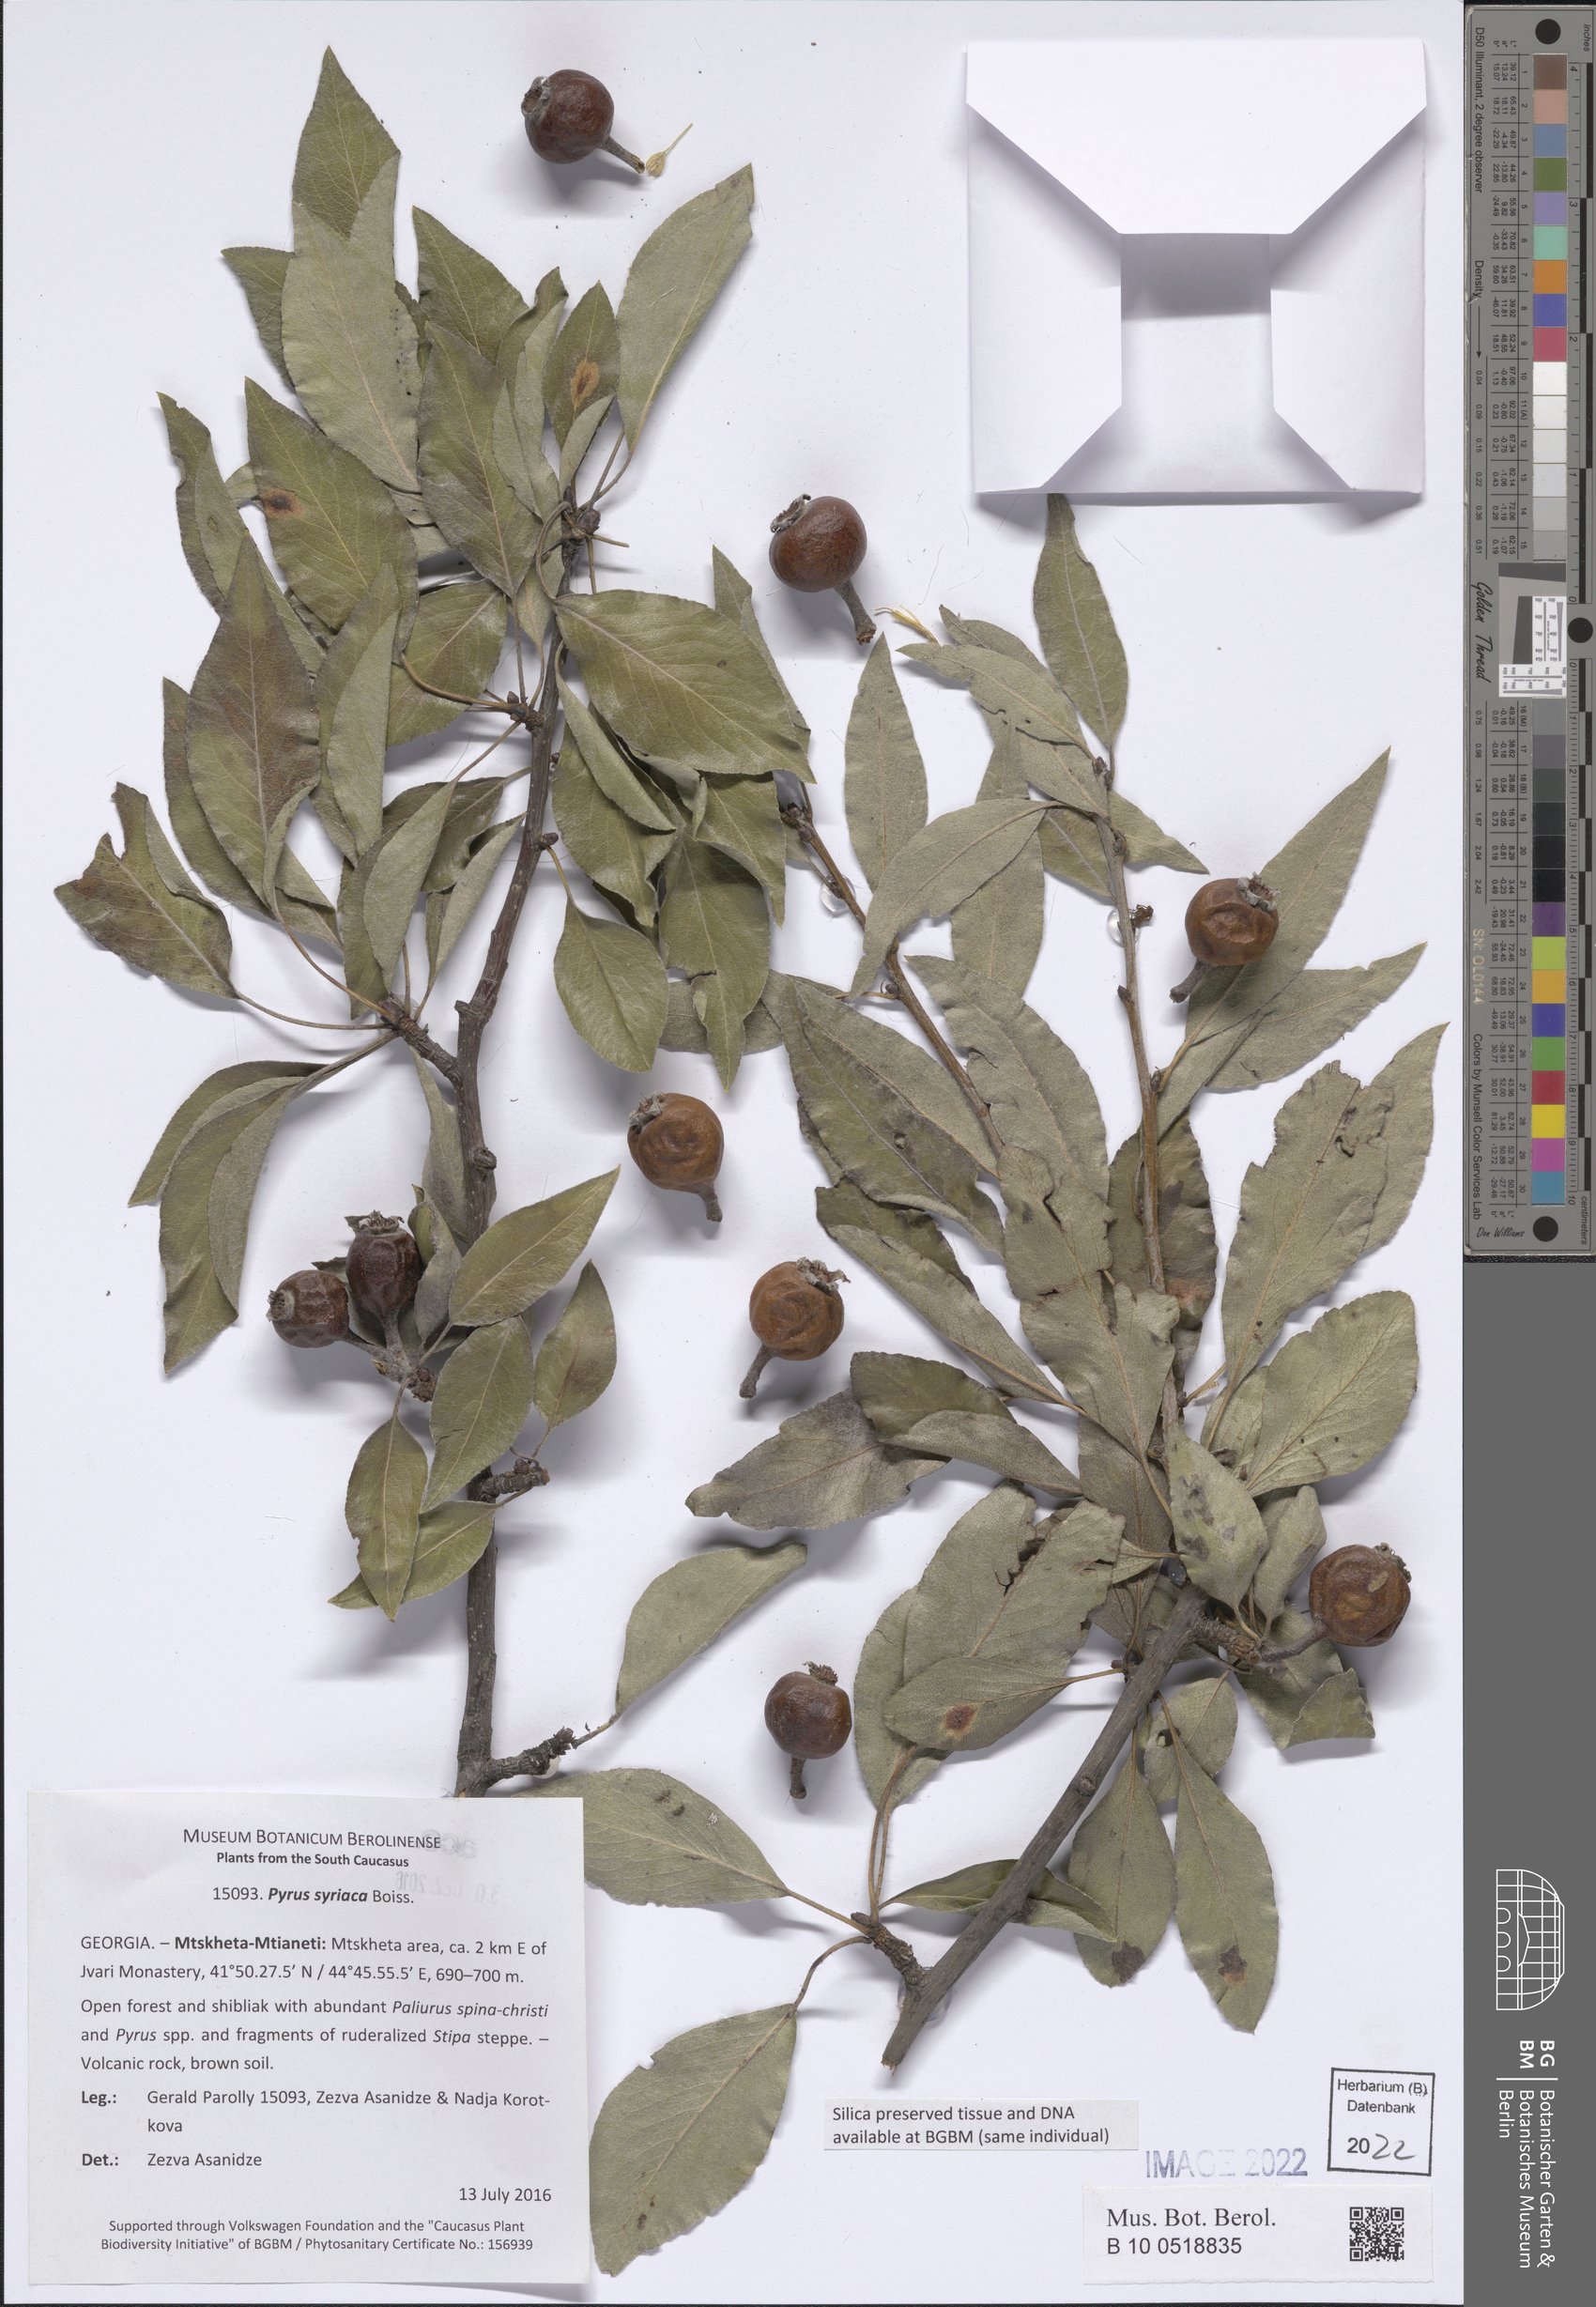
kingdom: Plantae
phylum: Tracheophyta
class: Magnoliopsida
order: Rosales
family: Rosaceae
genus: Pyrus
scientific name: Pyrus syriaca
